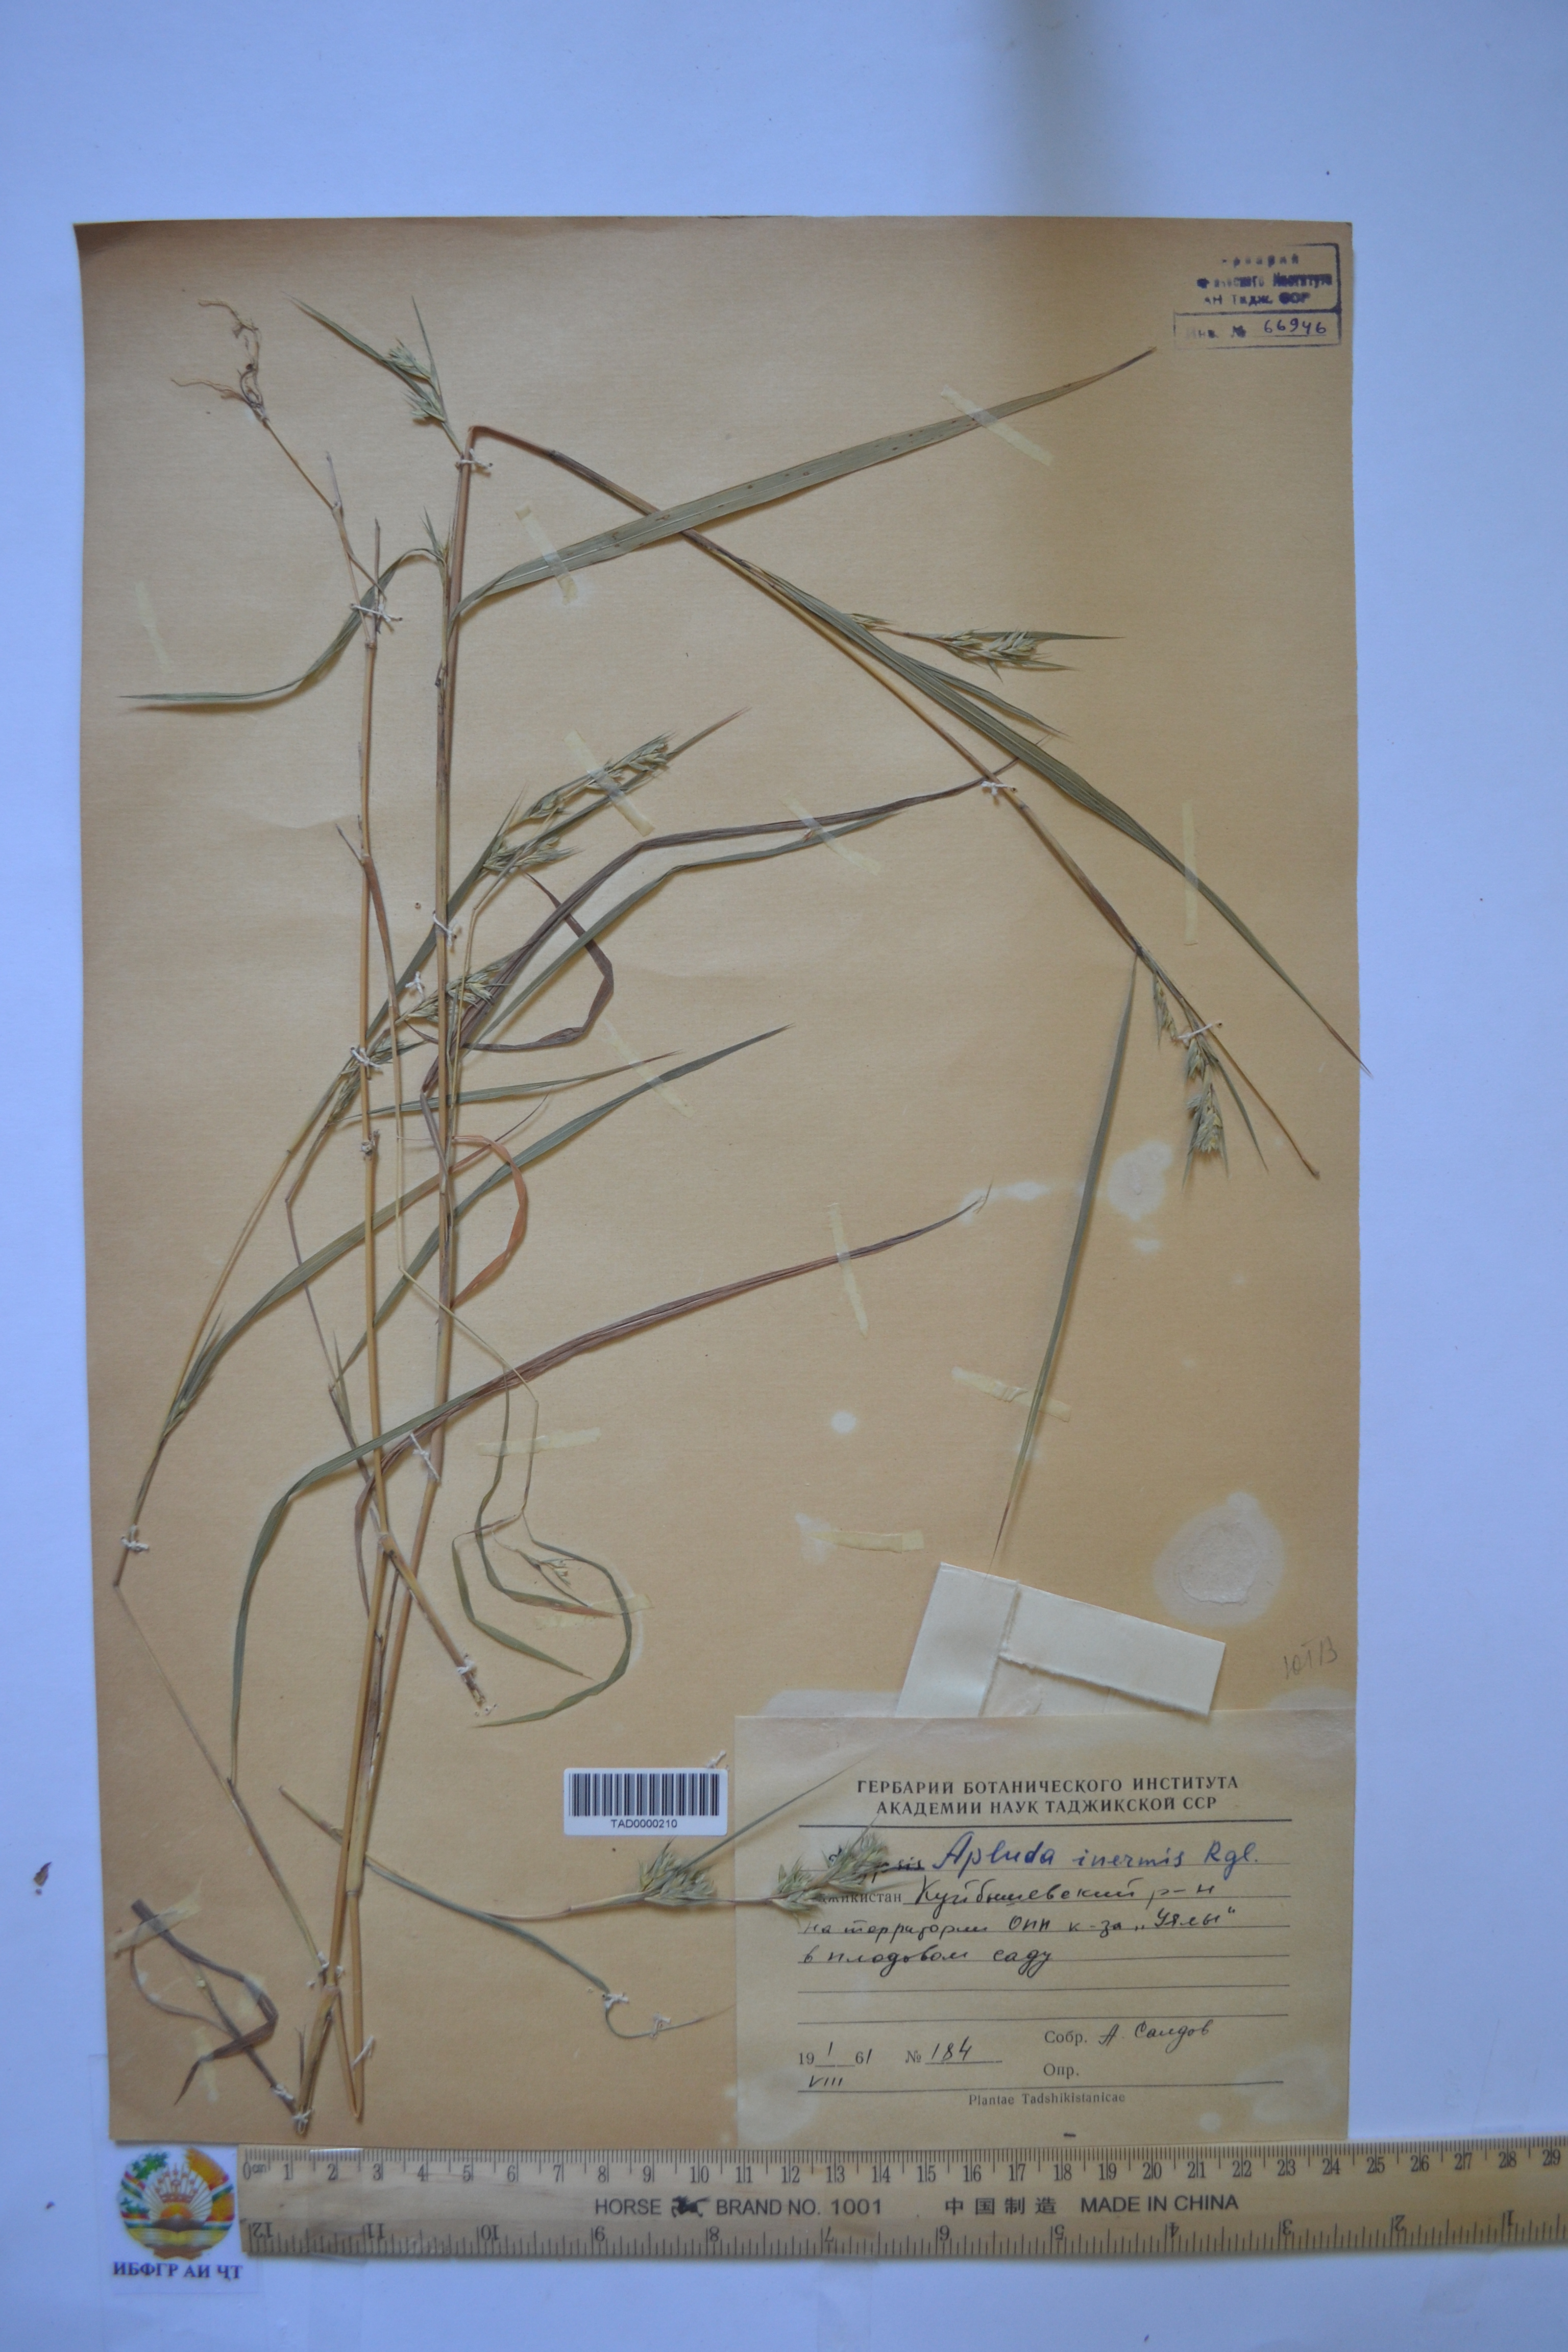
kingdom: Plantae
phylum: Tracheophyta
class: Liliopsida
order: Poales
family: Poaceae
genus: Apluda
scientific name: Apluda mutica
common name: Mauritian grass
